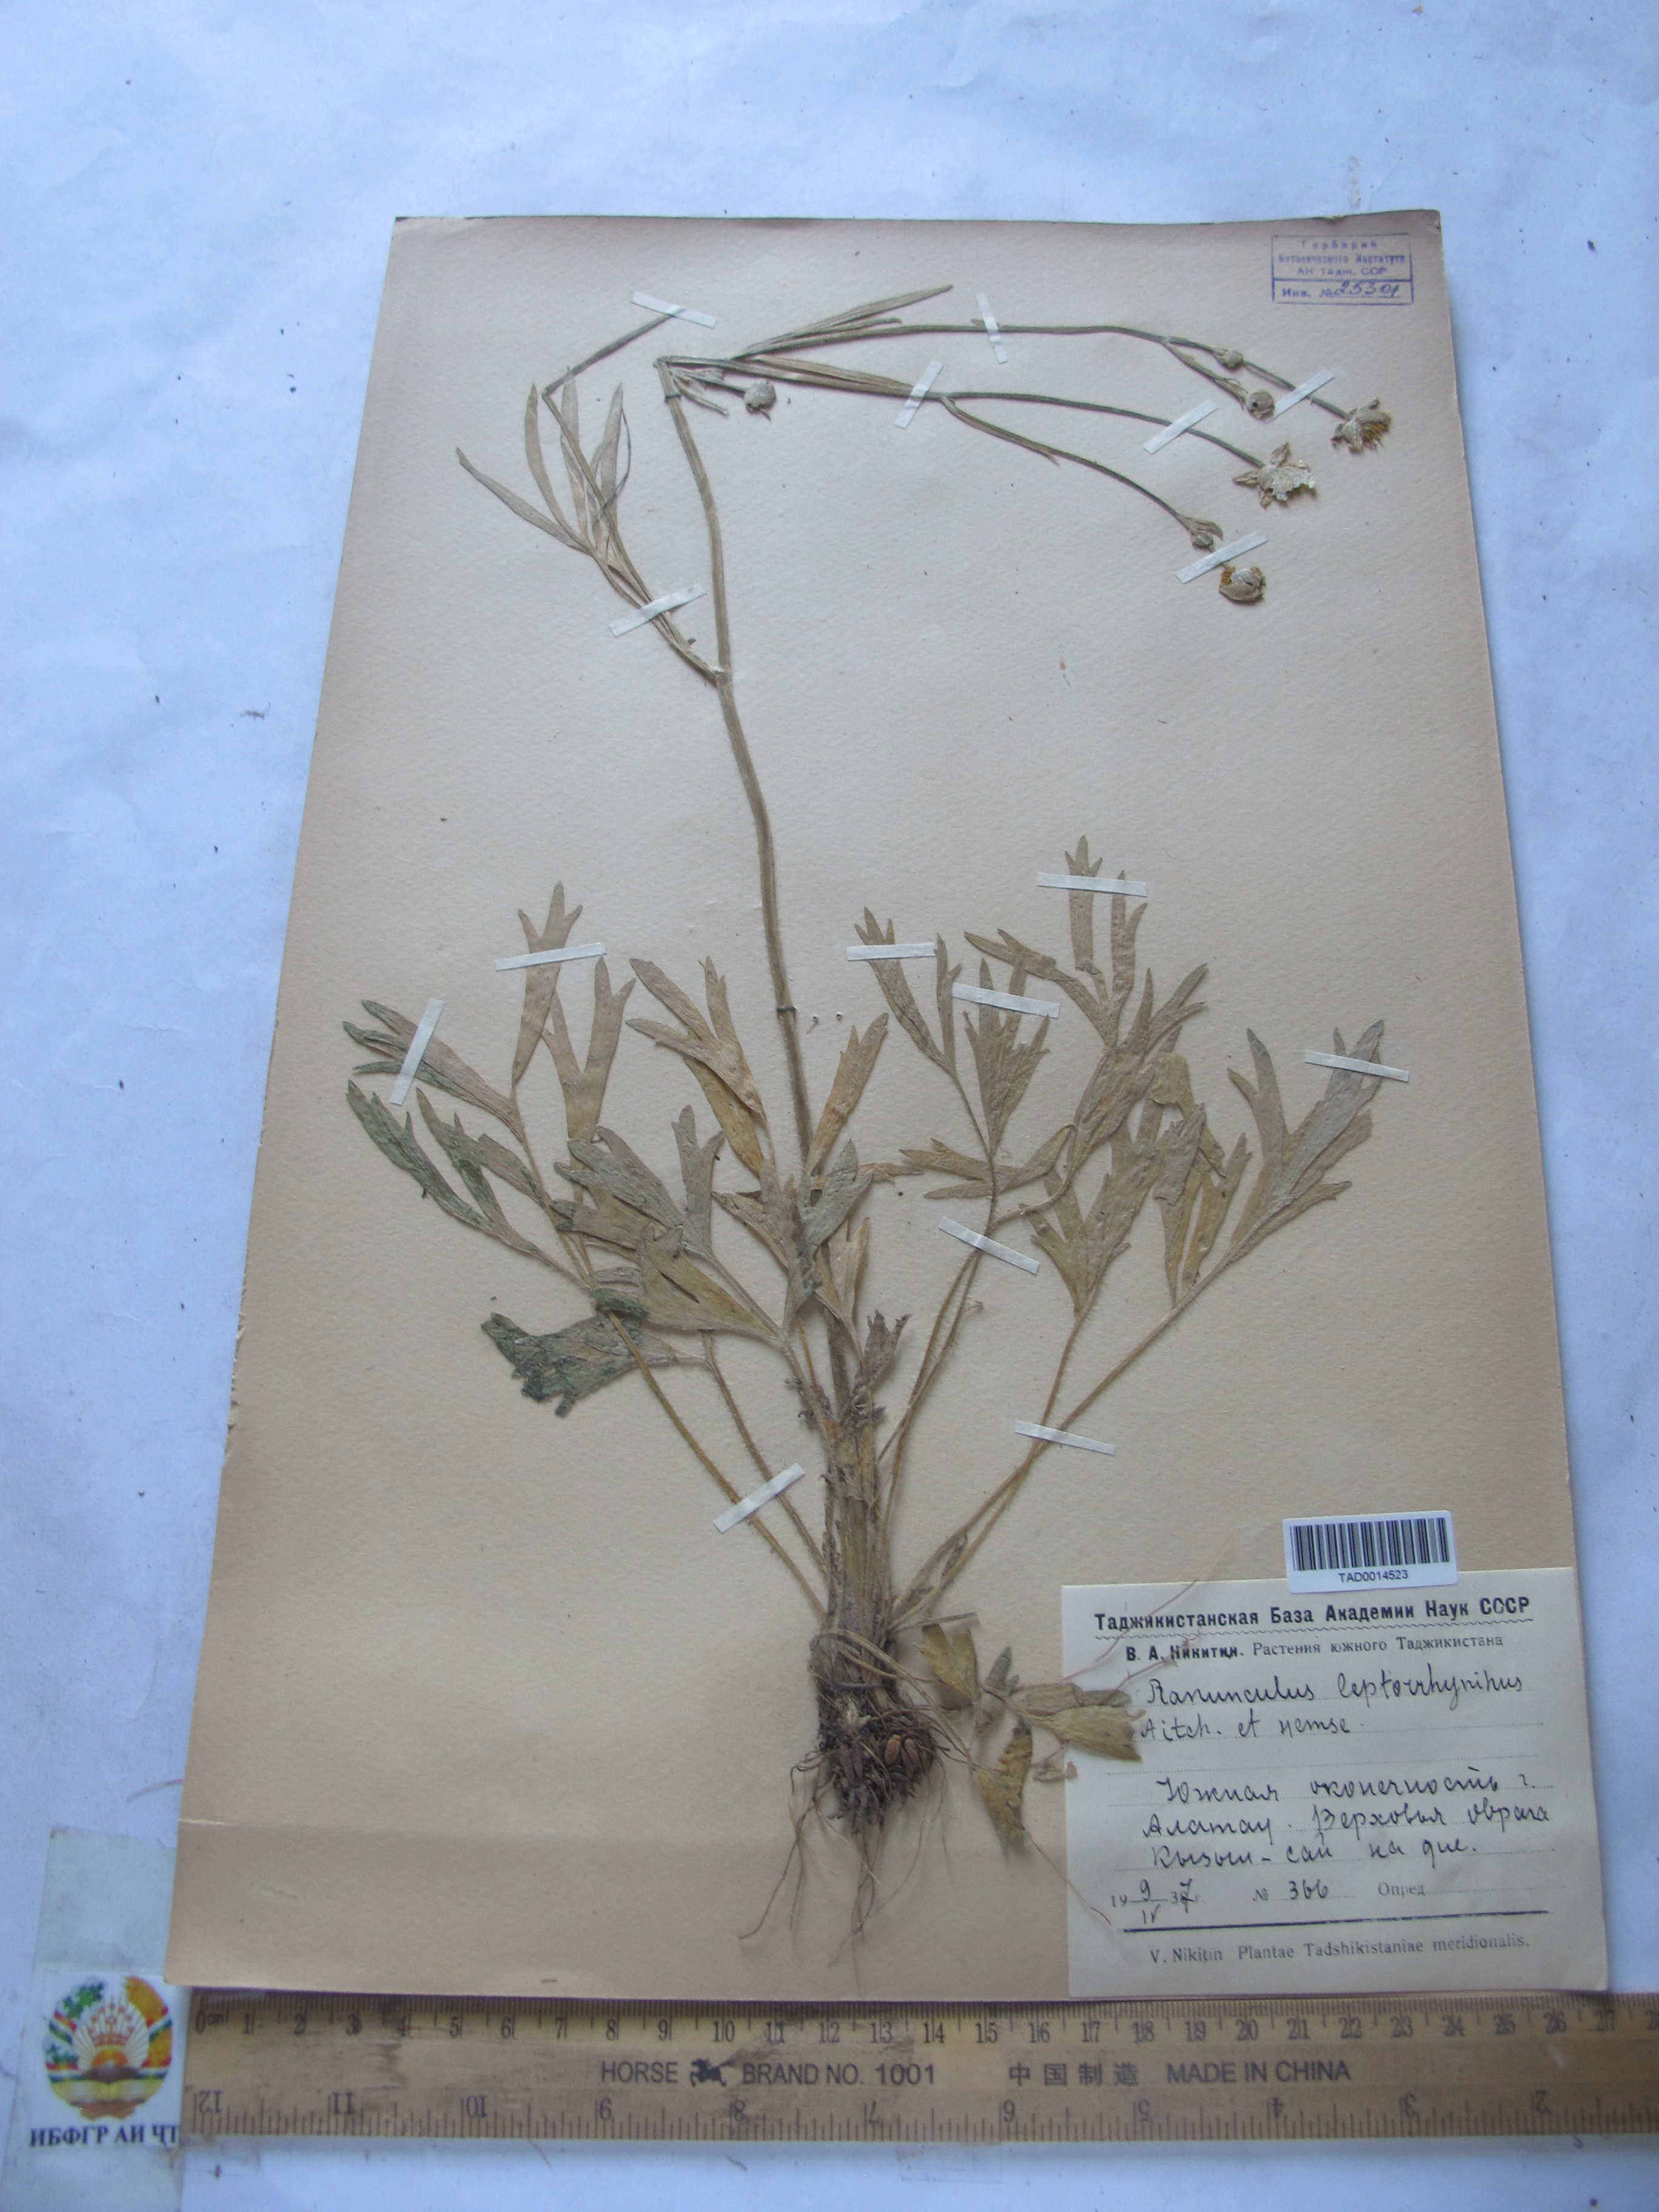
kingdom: Plantae
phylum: Tracheophyta
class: Magnoliopsida
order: Ranunculales
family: Ranunculaceae
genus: Ranunculus
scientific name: Ranunculus leptorrhynchus
